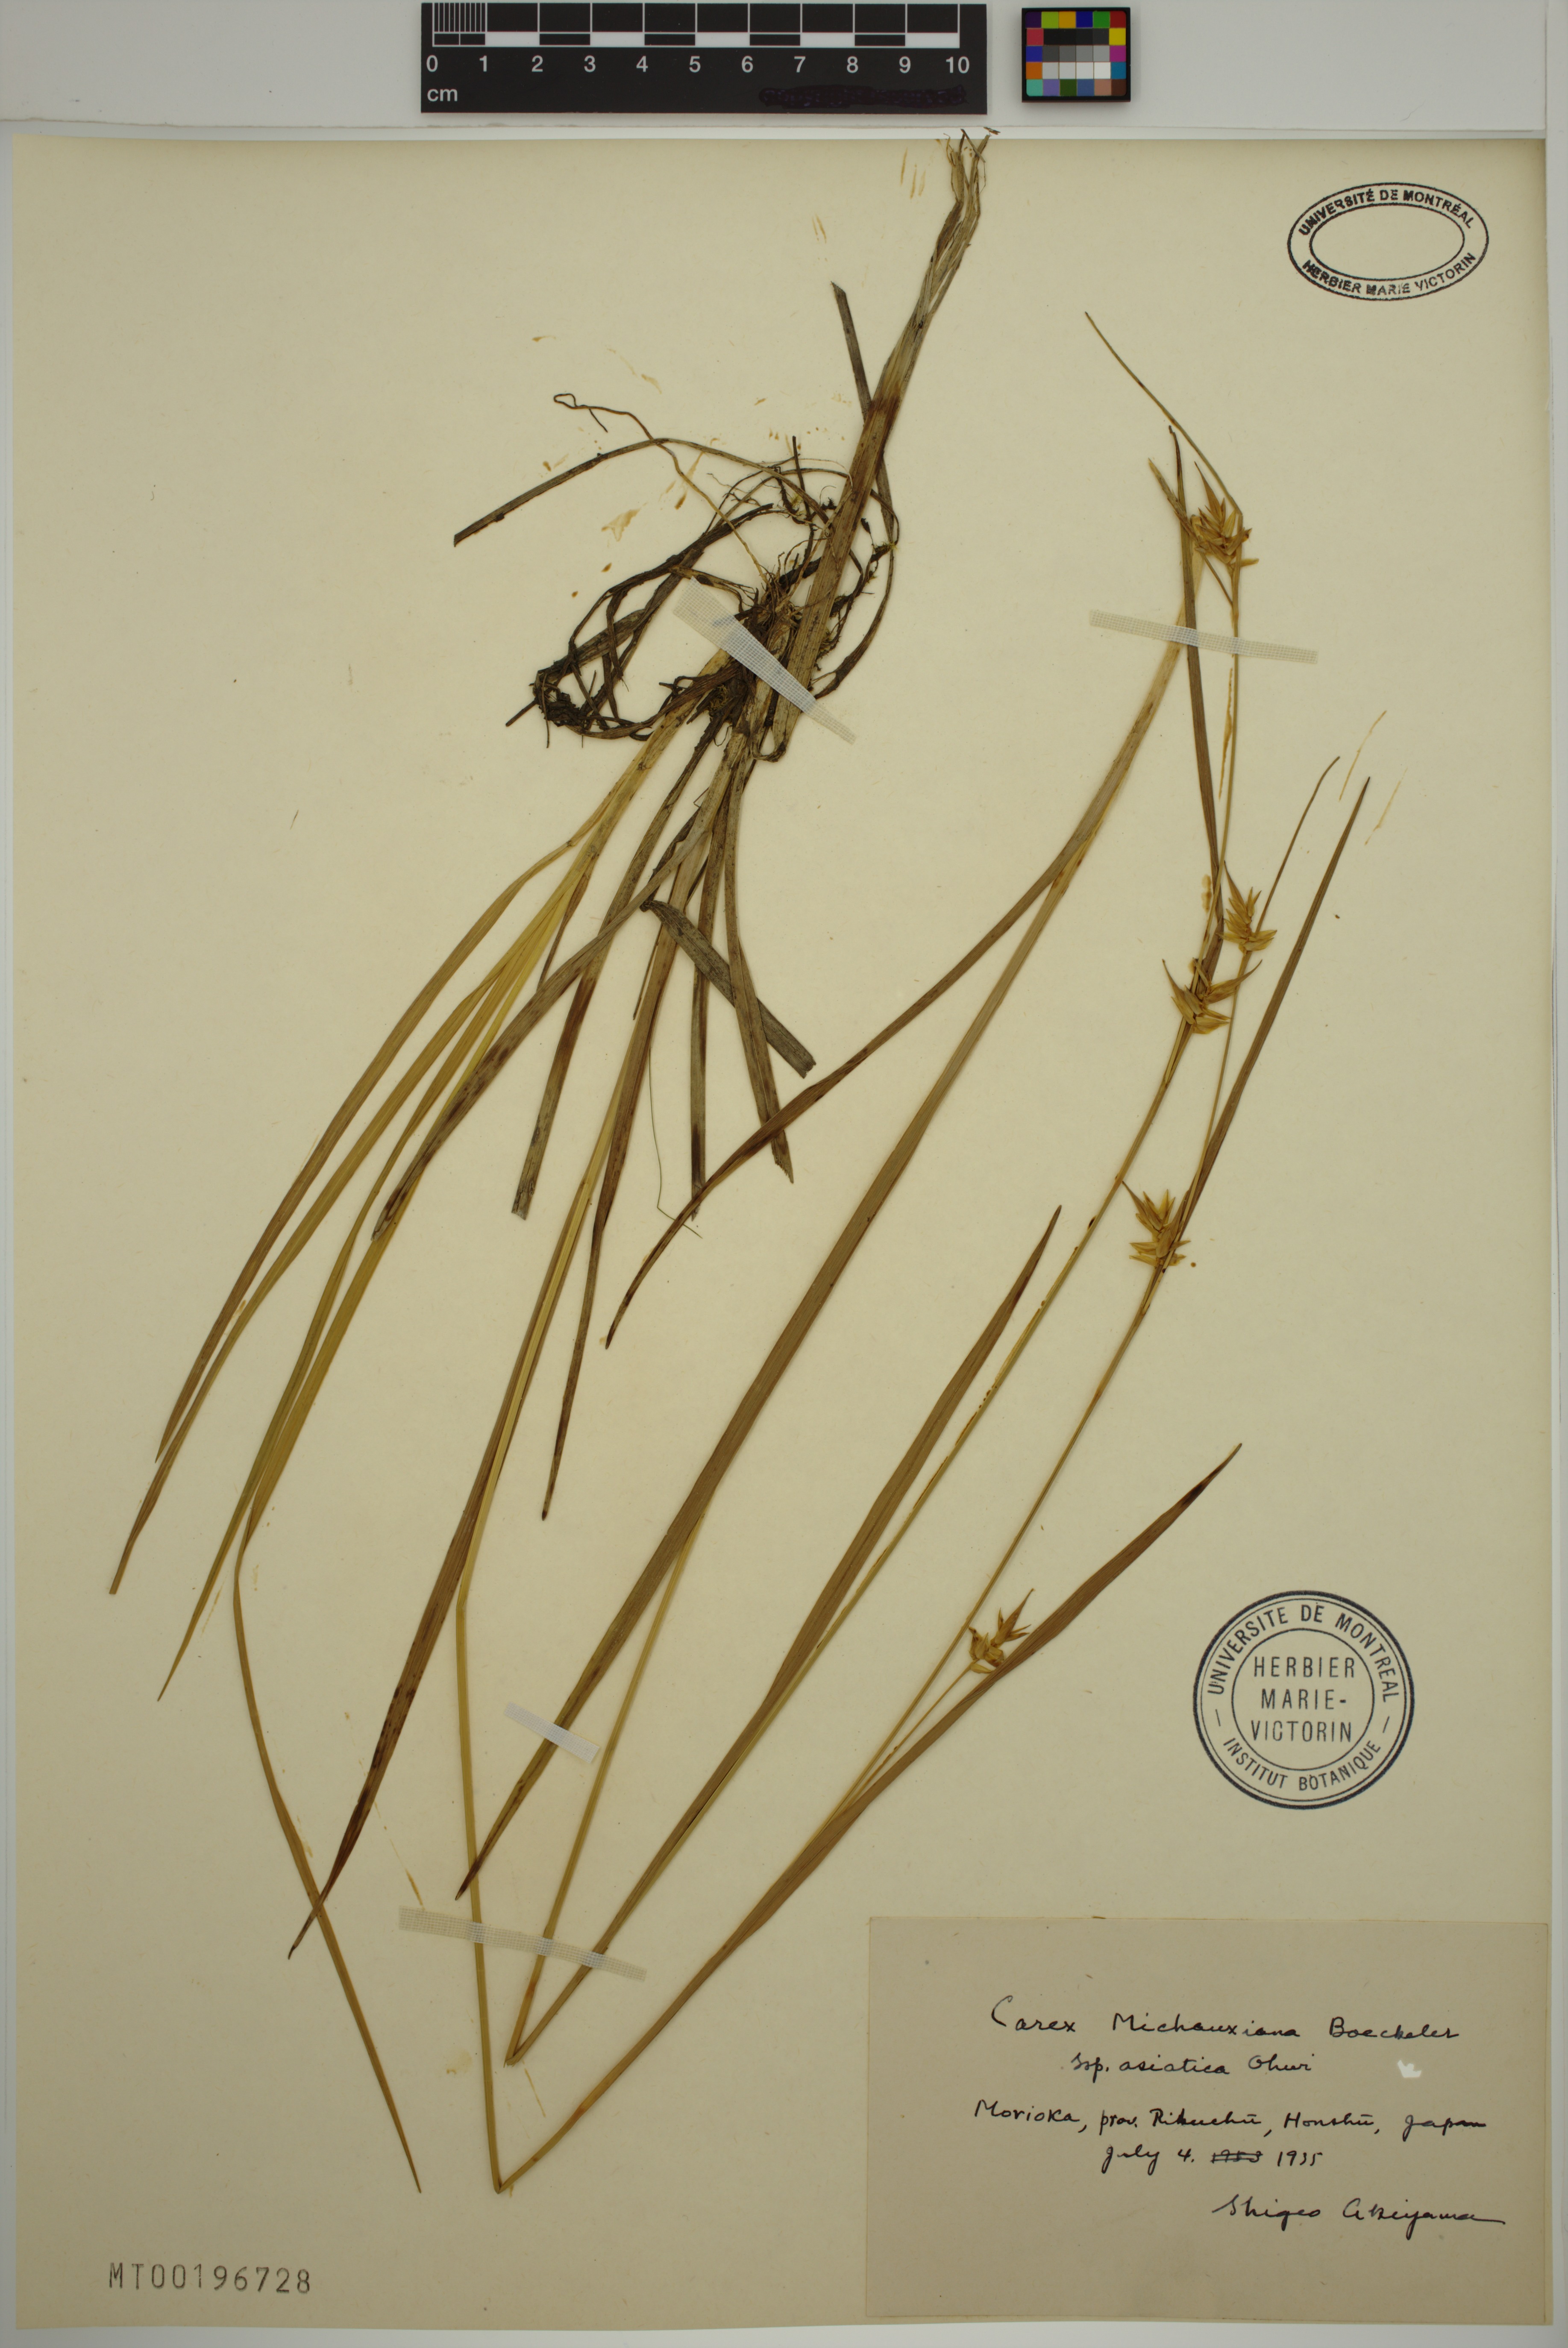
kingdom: Plantae
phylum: Tracheophyta
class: Liliopsida
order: Poales
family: Cyperaceae
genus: Carex
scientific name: Carex michauxiana
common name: Michaux's sedge
